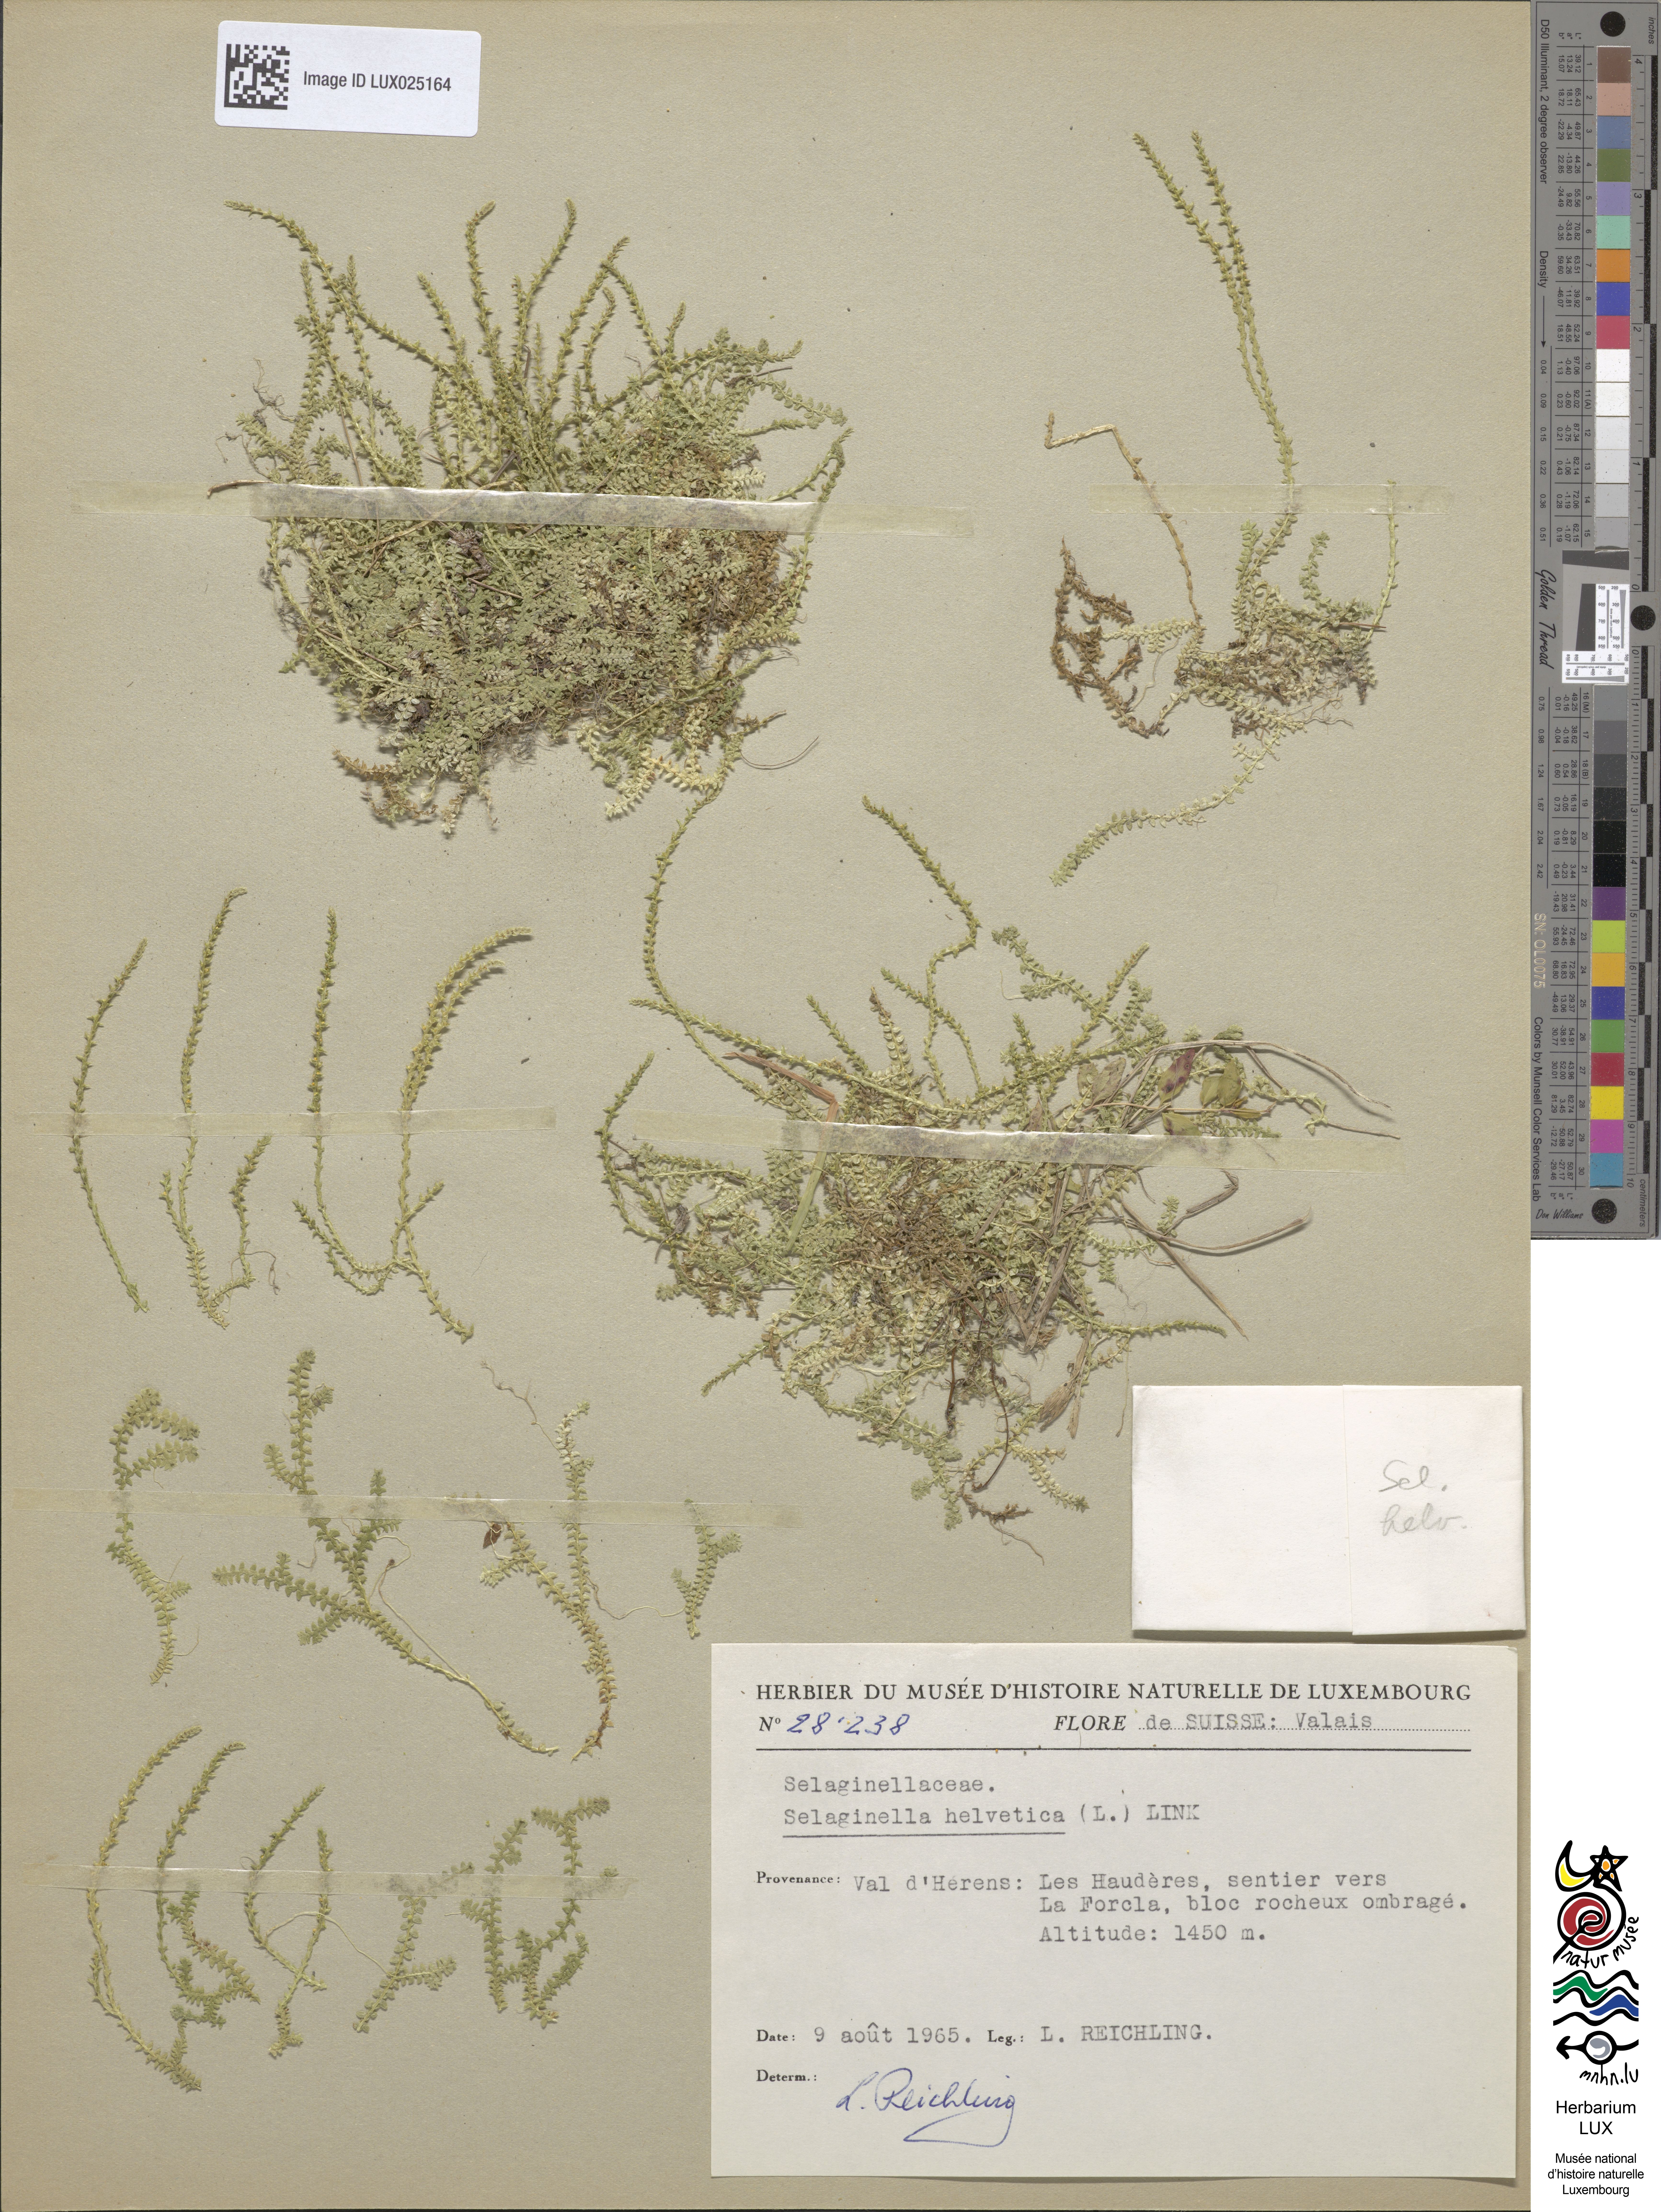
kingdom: Plantae
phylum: Tracheophyta
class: Lycopodiopsida
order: Selaginellales
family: Selaginellaceae
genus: Selaginella
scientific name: Selaginella helvetica
